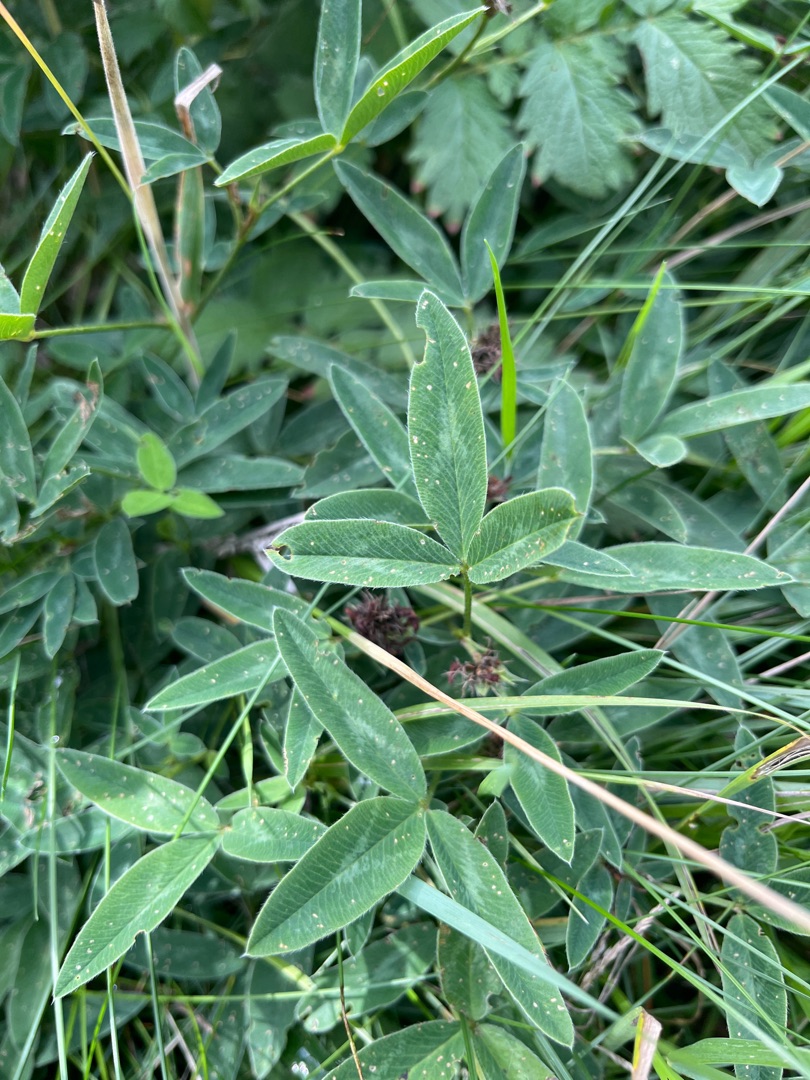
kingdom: Plantae
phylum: Tracheophyta
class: Magnoliopsida
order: Fabales
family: Fabaceae
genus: Trifolium
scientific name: Trifolium medium
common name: Bugtet kløver
